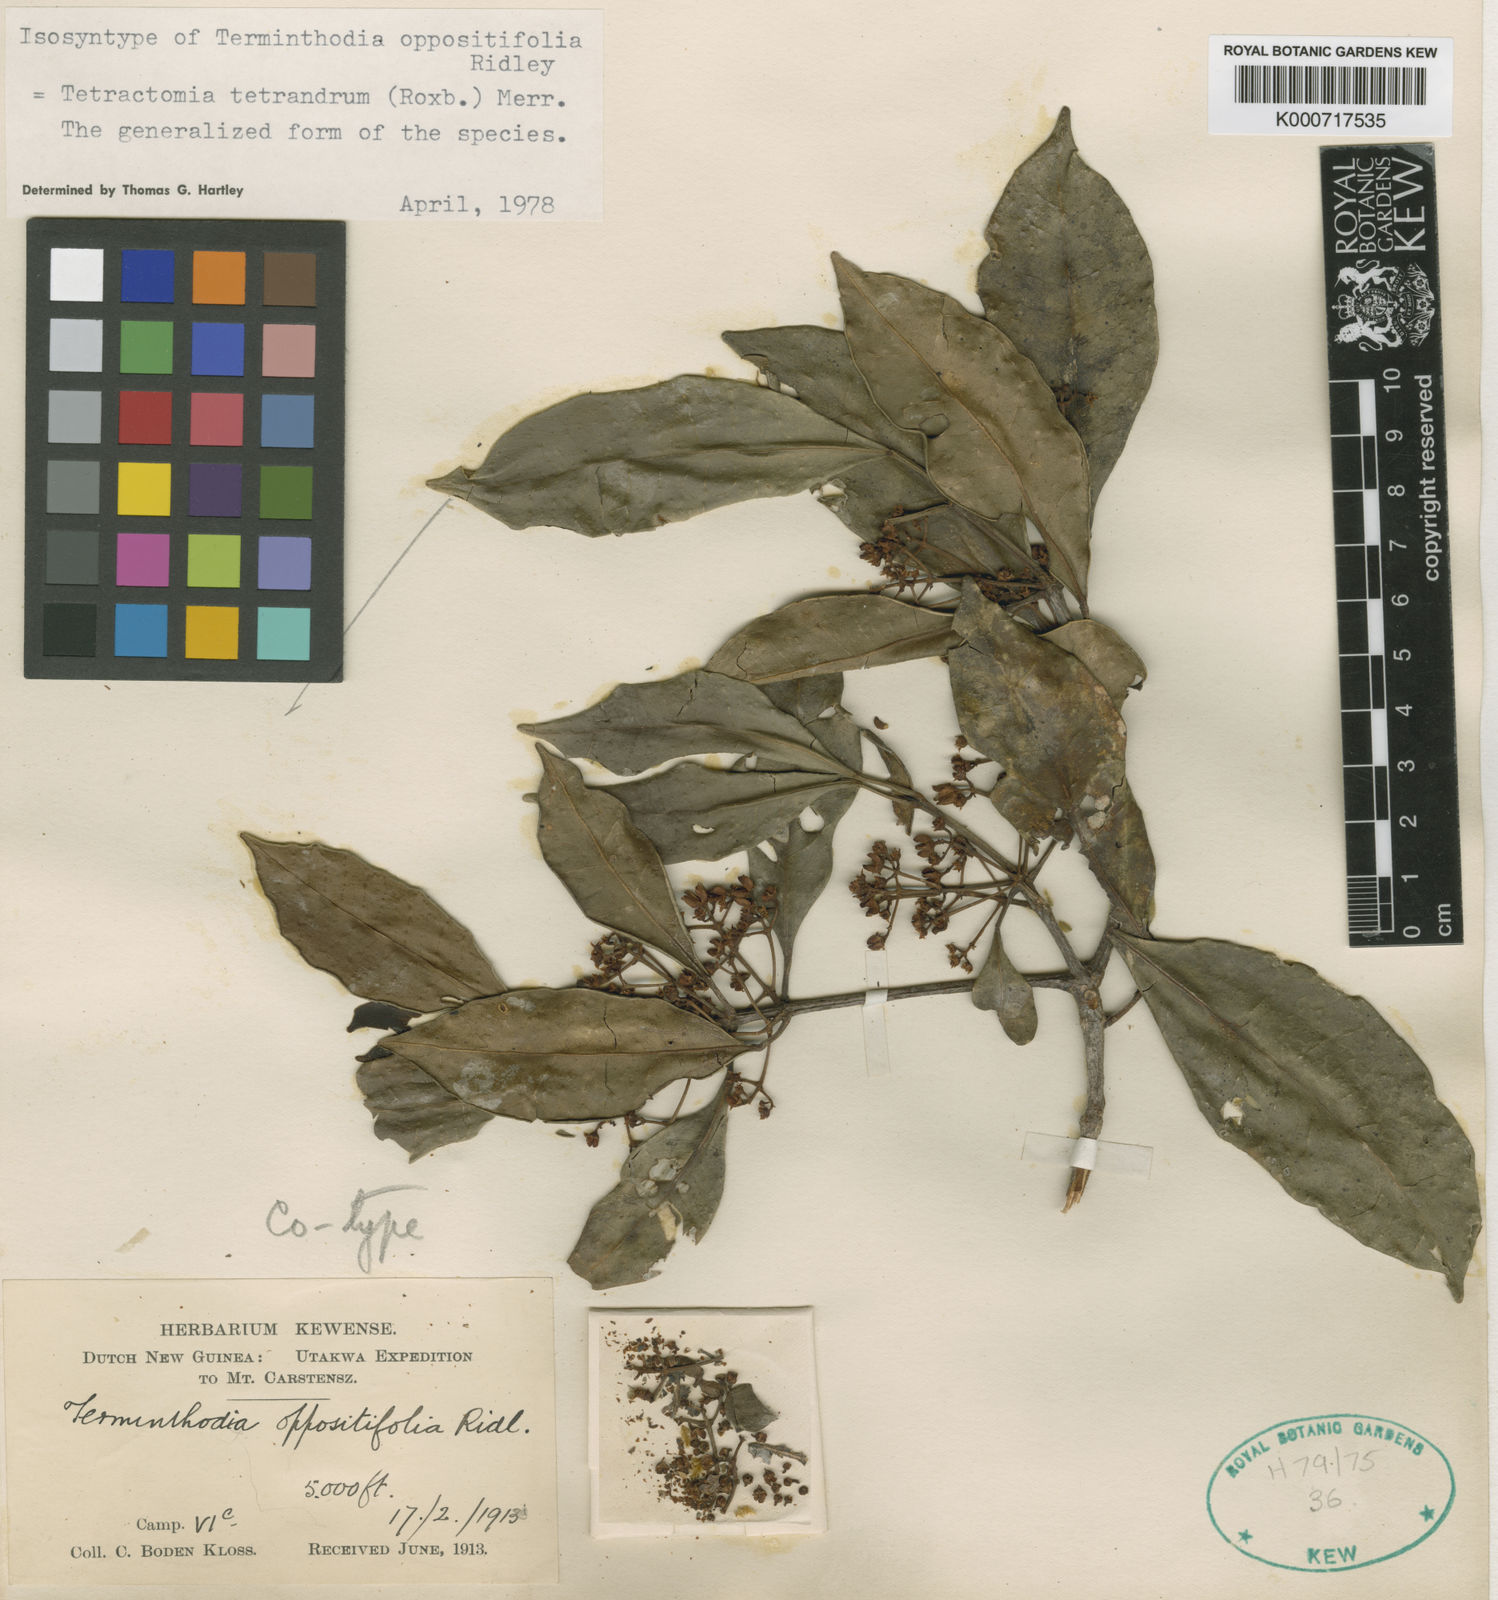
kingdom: Plantae
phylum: Tracheophyta
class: Magnoliopsida
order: Sapindales
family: Rutaceae
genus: Tetractomia
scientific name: Tetractomia tetrandra
